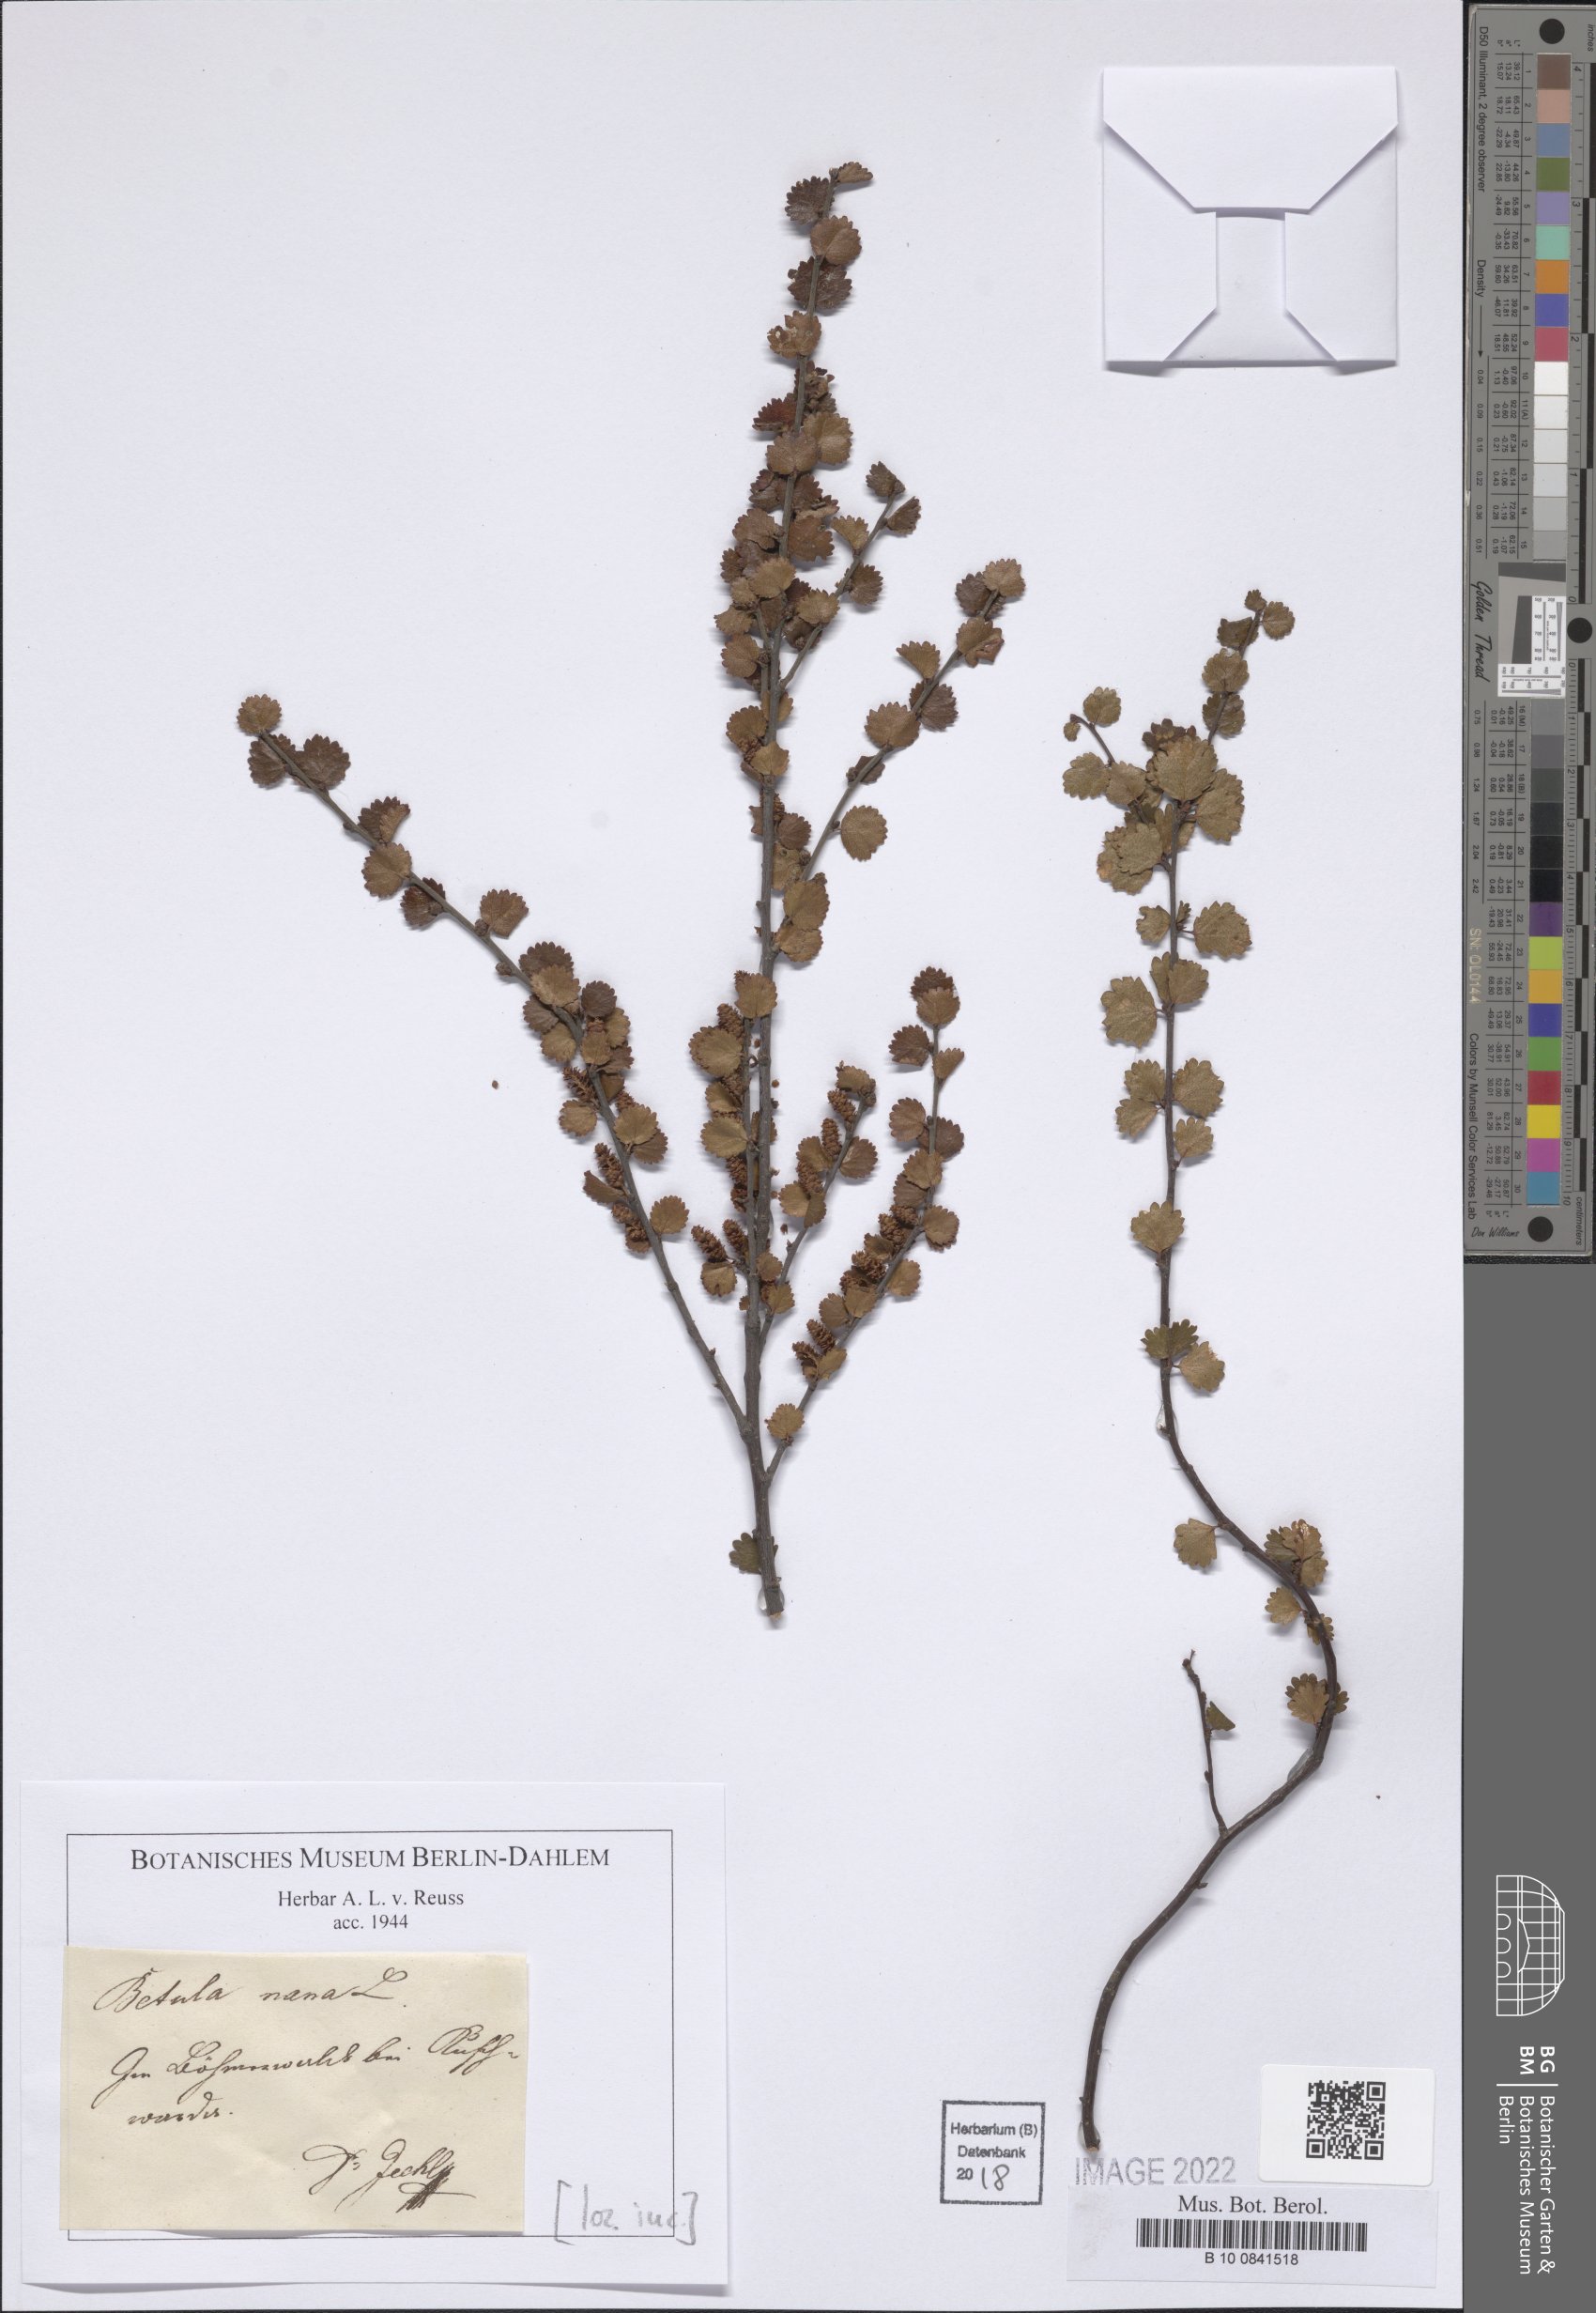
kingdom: Plantae
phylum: Tracheophyta
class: Magnoliopsida
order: Fagales
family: Betulaceae
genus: Betula
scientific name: Betula nana
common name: Arctic dwarf birch
